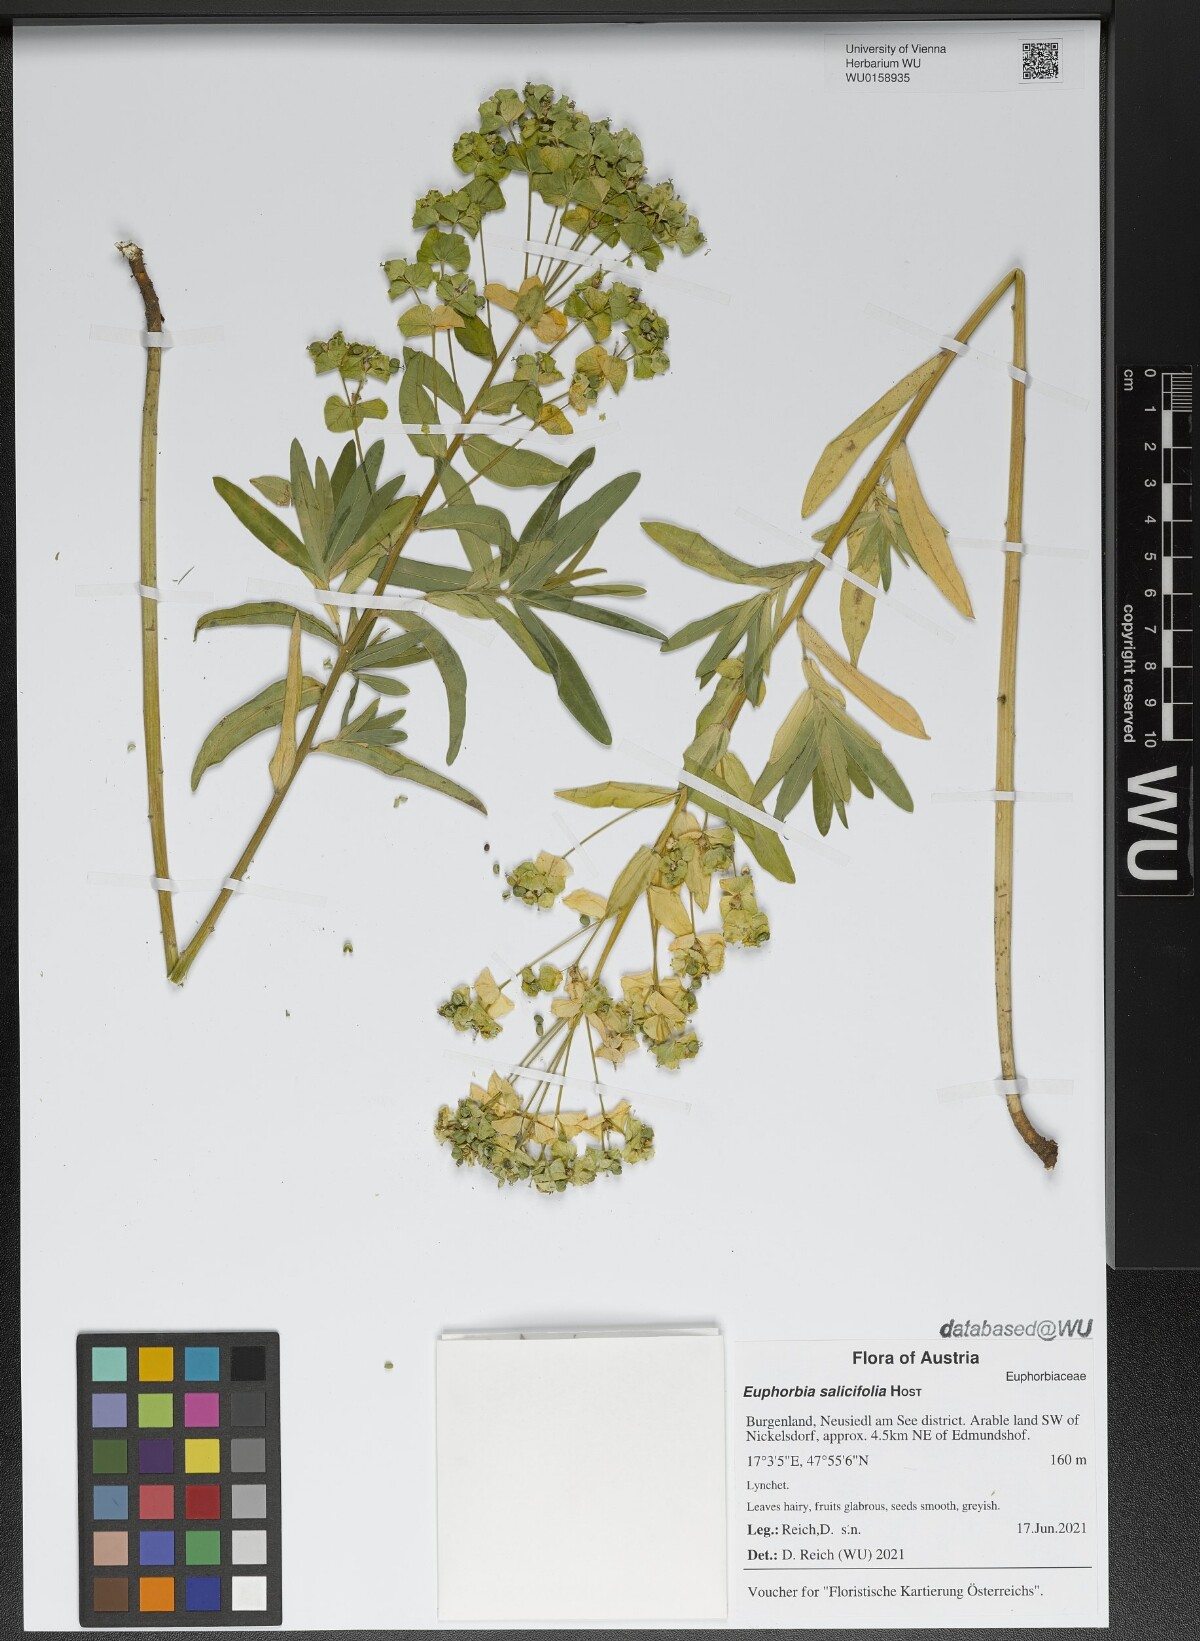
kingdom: Plantae
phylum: Tracheophyta
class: Magnoliopsida
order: Malpighiales
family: Euphorbiaceae
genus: Euphorbia
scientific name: Euphorbia salicifolia
